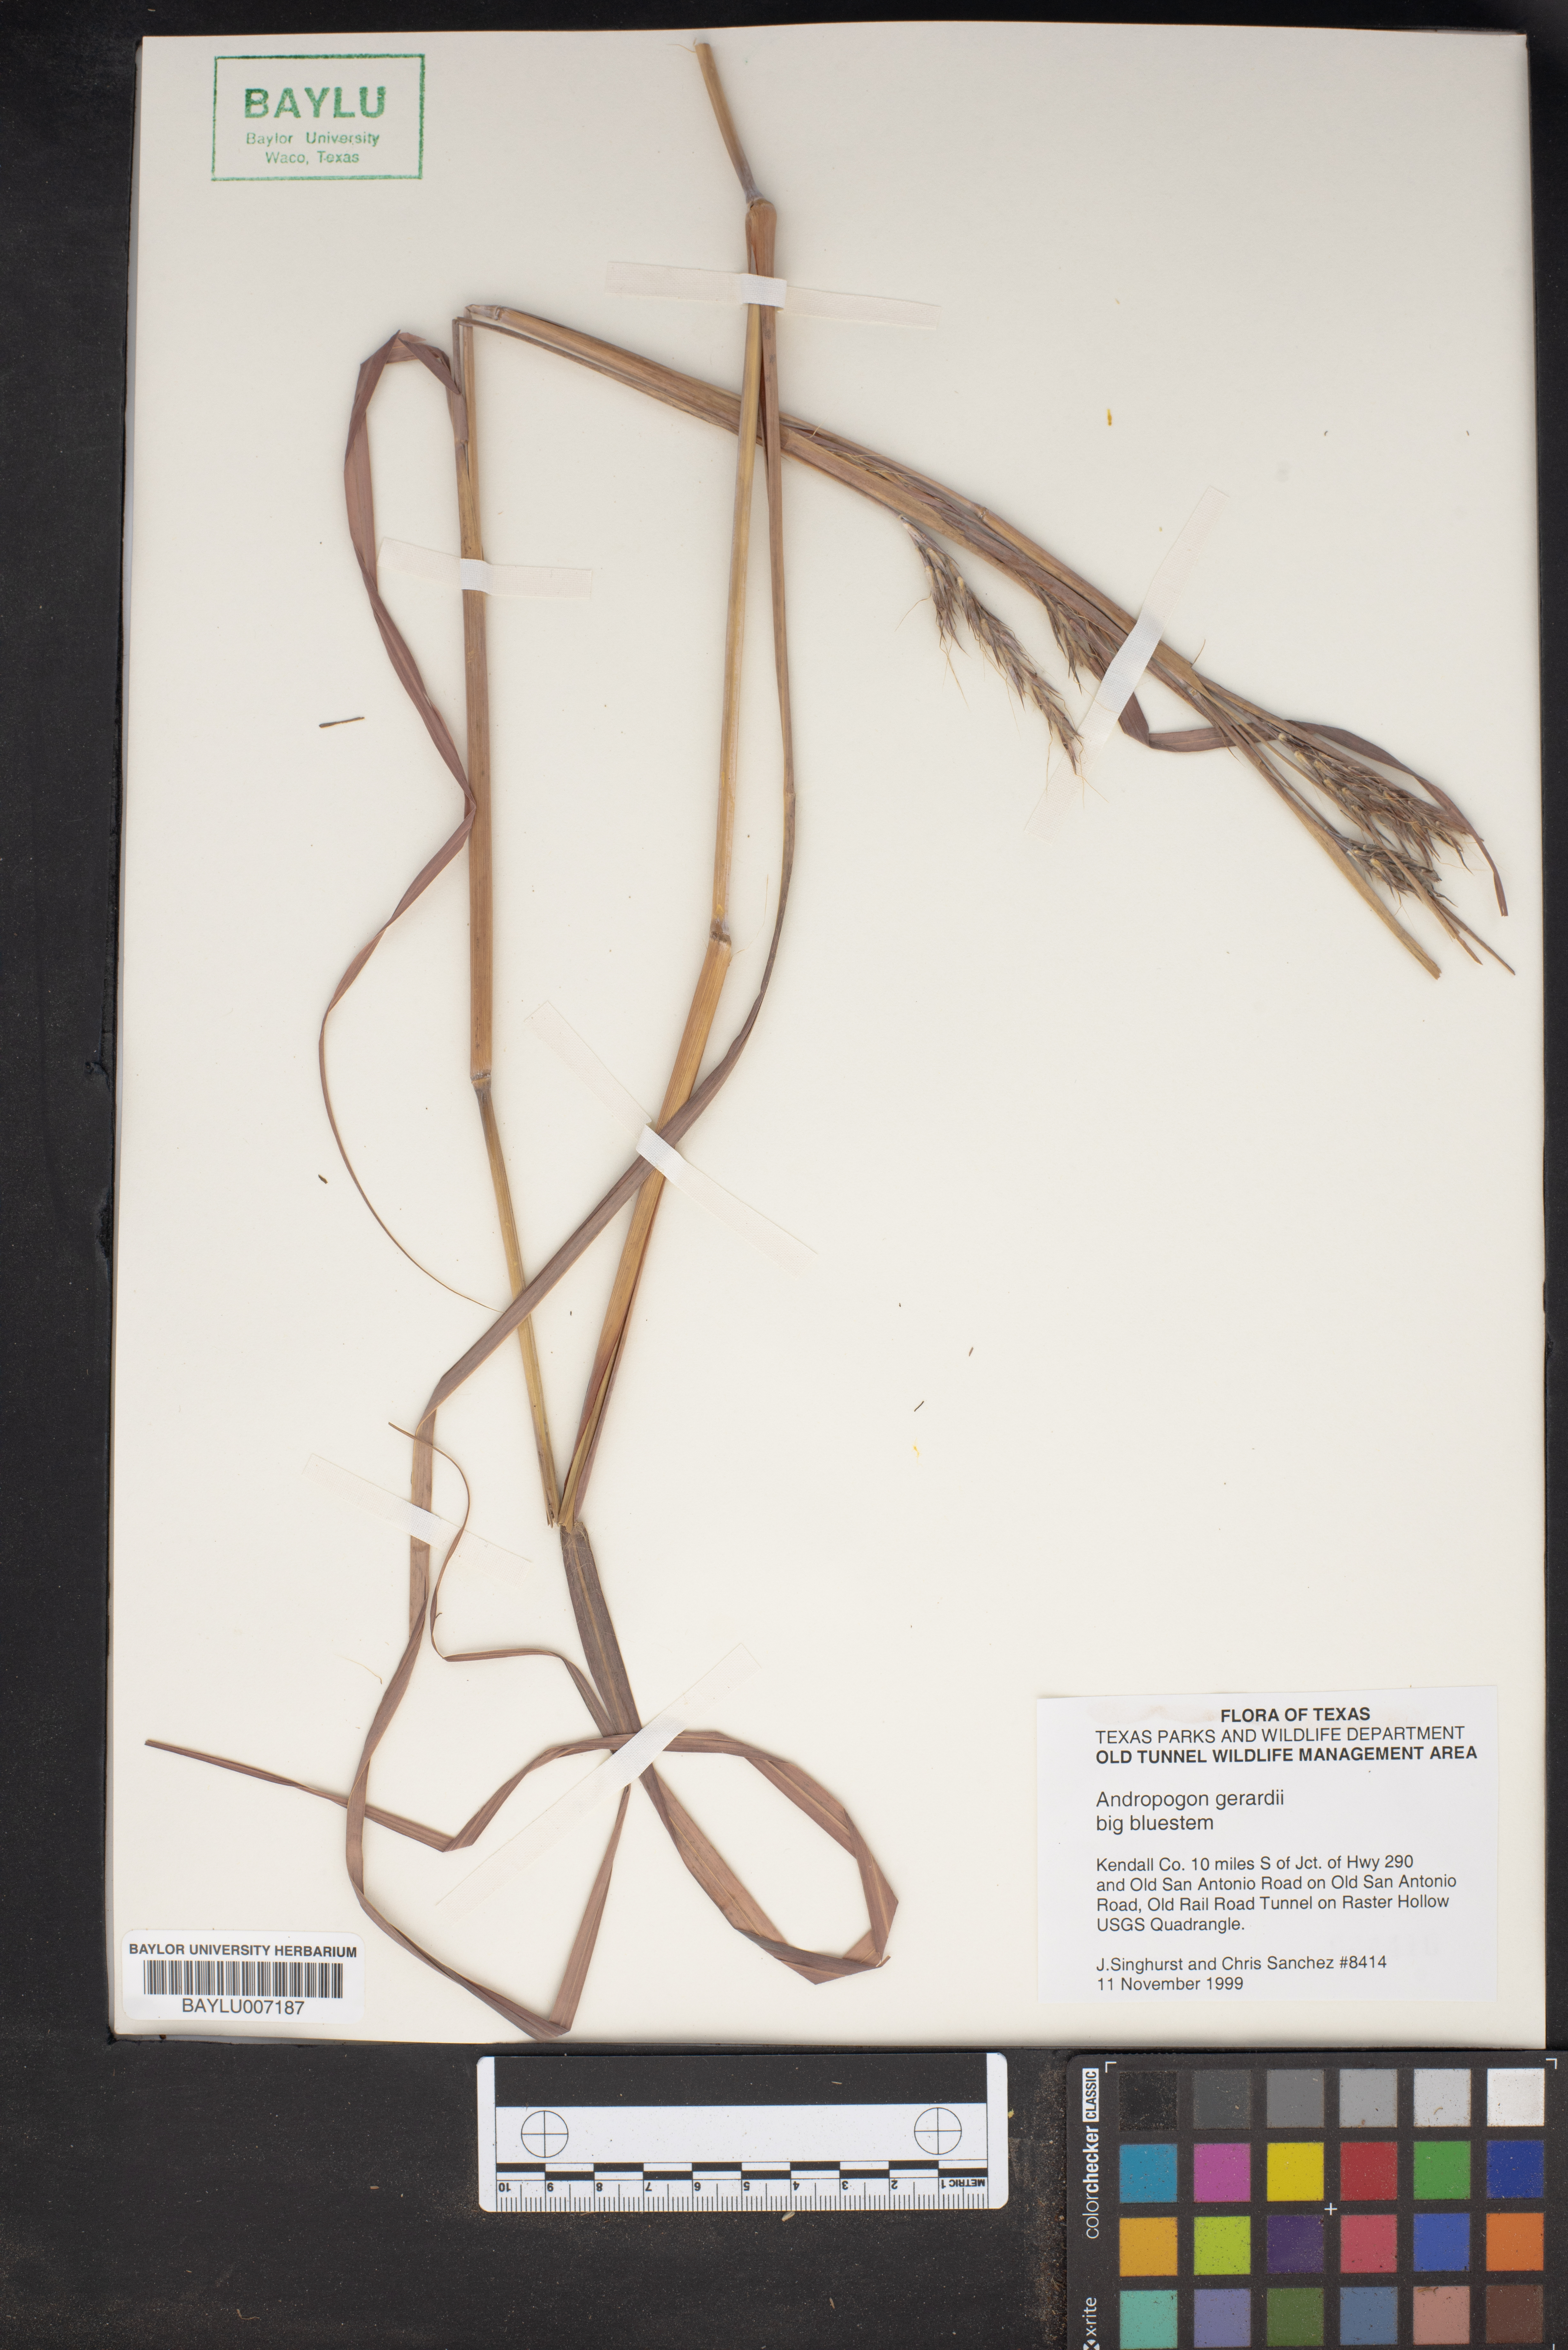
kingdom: Plantae
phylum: Tracheophyta
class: Liliopsida
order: Poales
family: Poaceae
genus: Andropogon
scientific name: Andropogon gerardi
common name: Big bluestem
